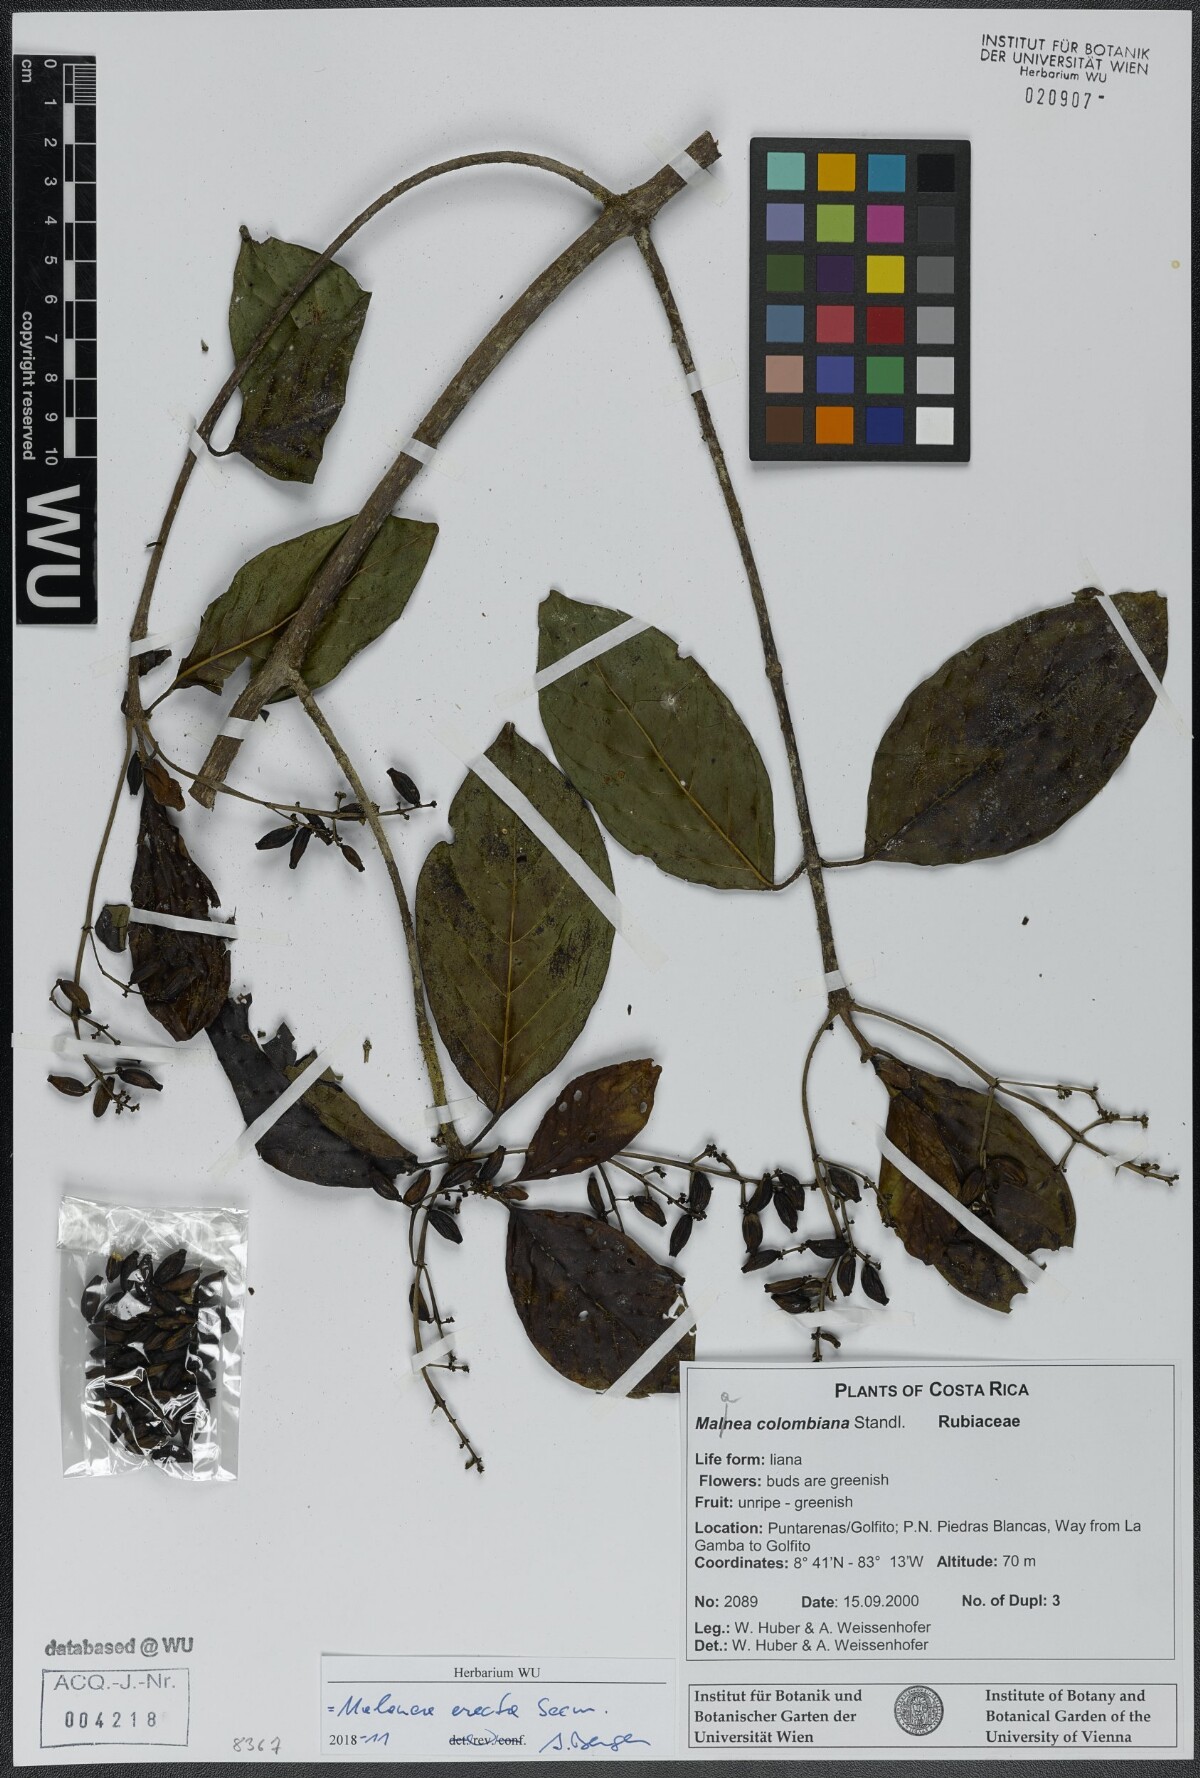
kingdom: Plantae
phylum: Tracheophyta
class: Magnoliopsida
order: Gentianales
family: Rubiaceae
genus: Malanea
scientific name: Malanea erecta
